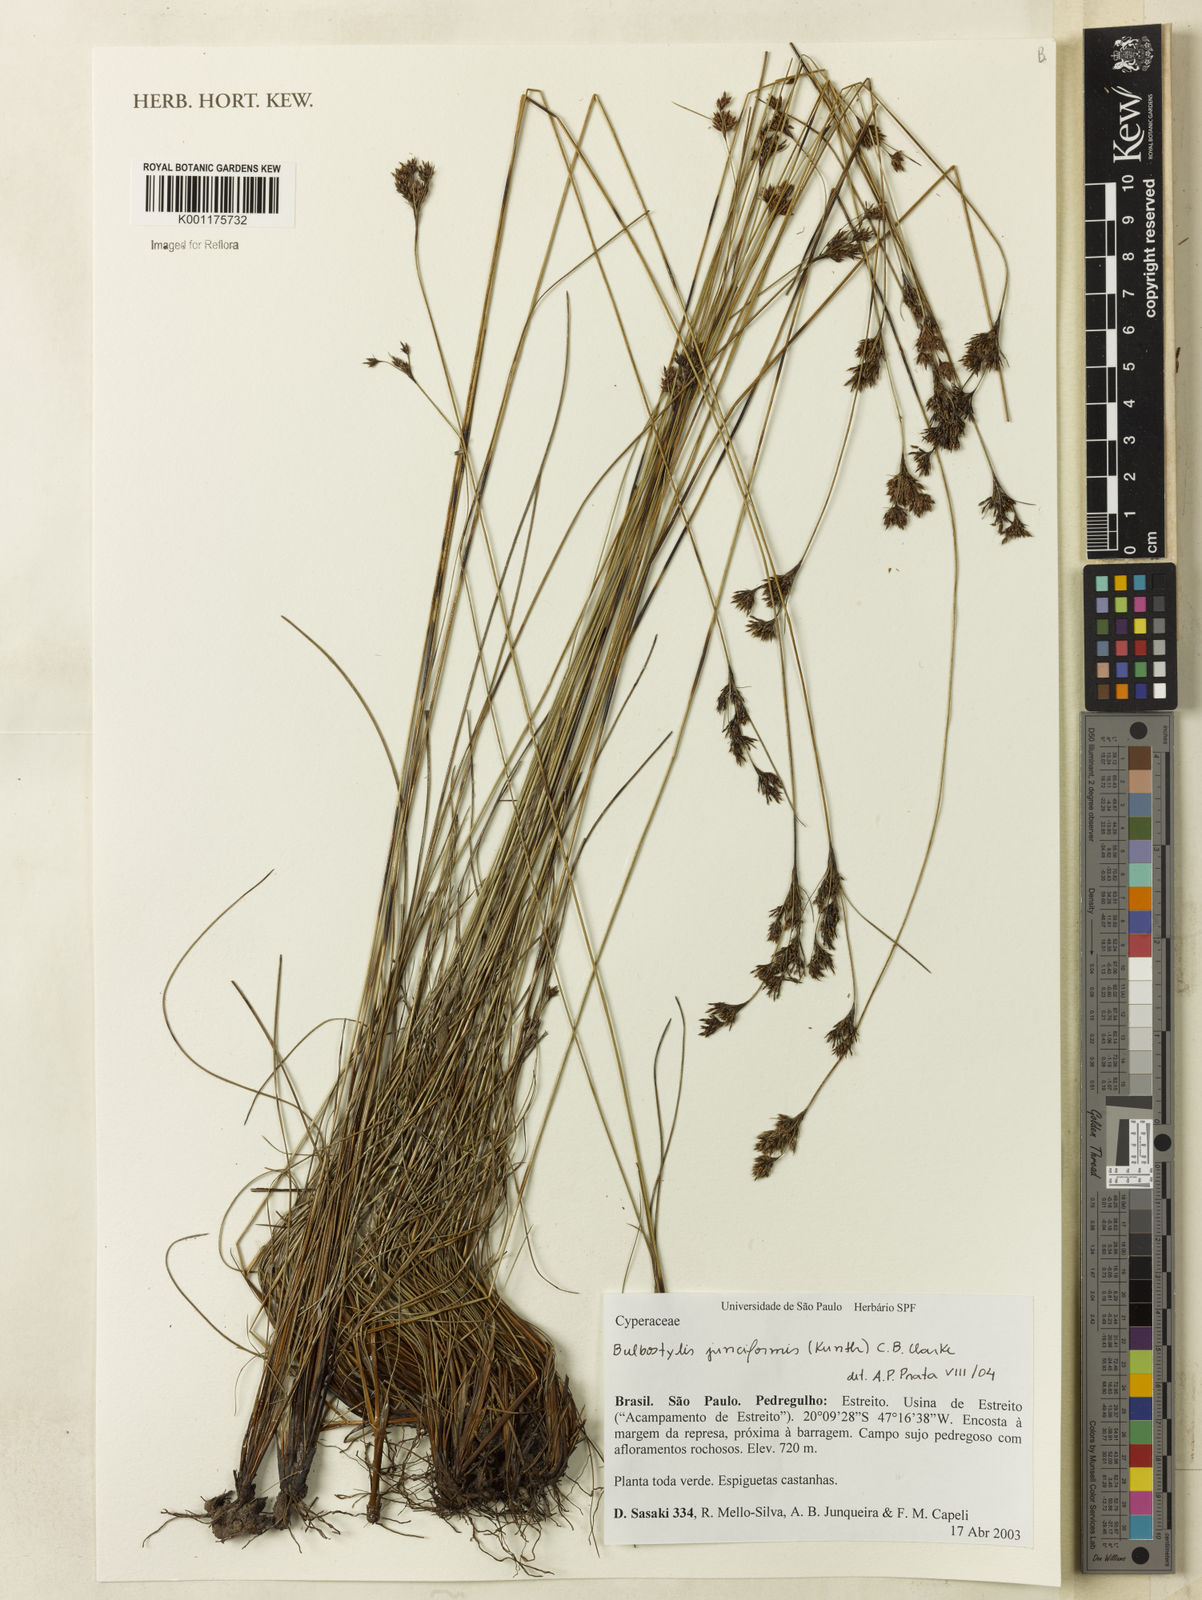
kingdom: Plantae
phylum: Tracheophyta
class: Liliopsida
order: Poales
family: Cyperaceae
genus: Bulbostylis
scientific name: Bulbostylis junciformis
